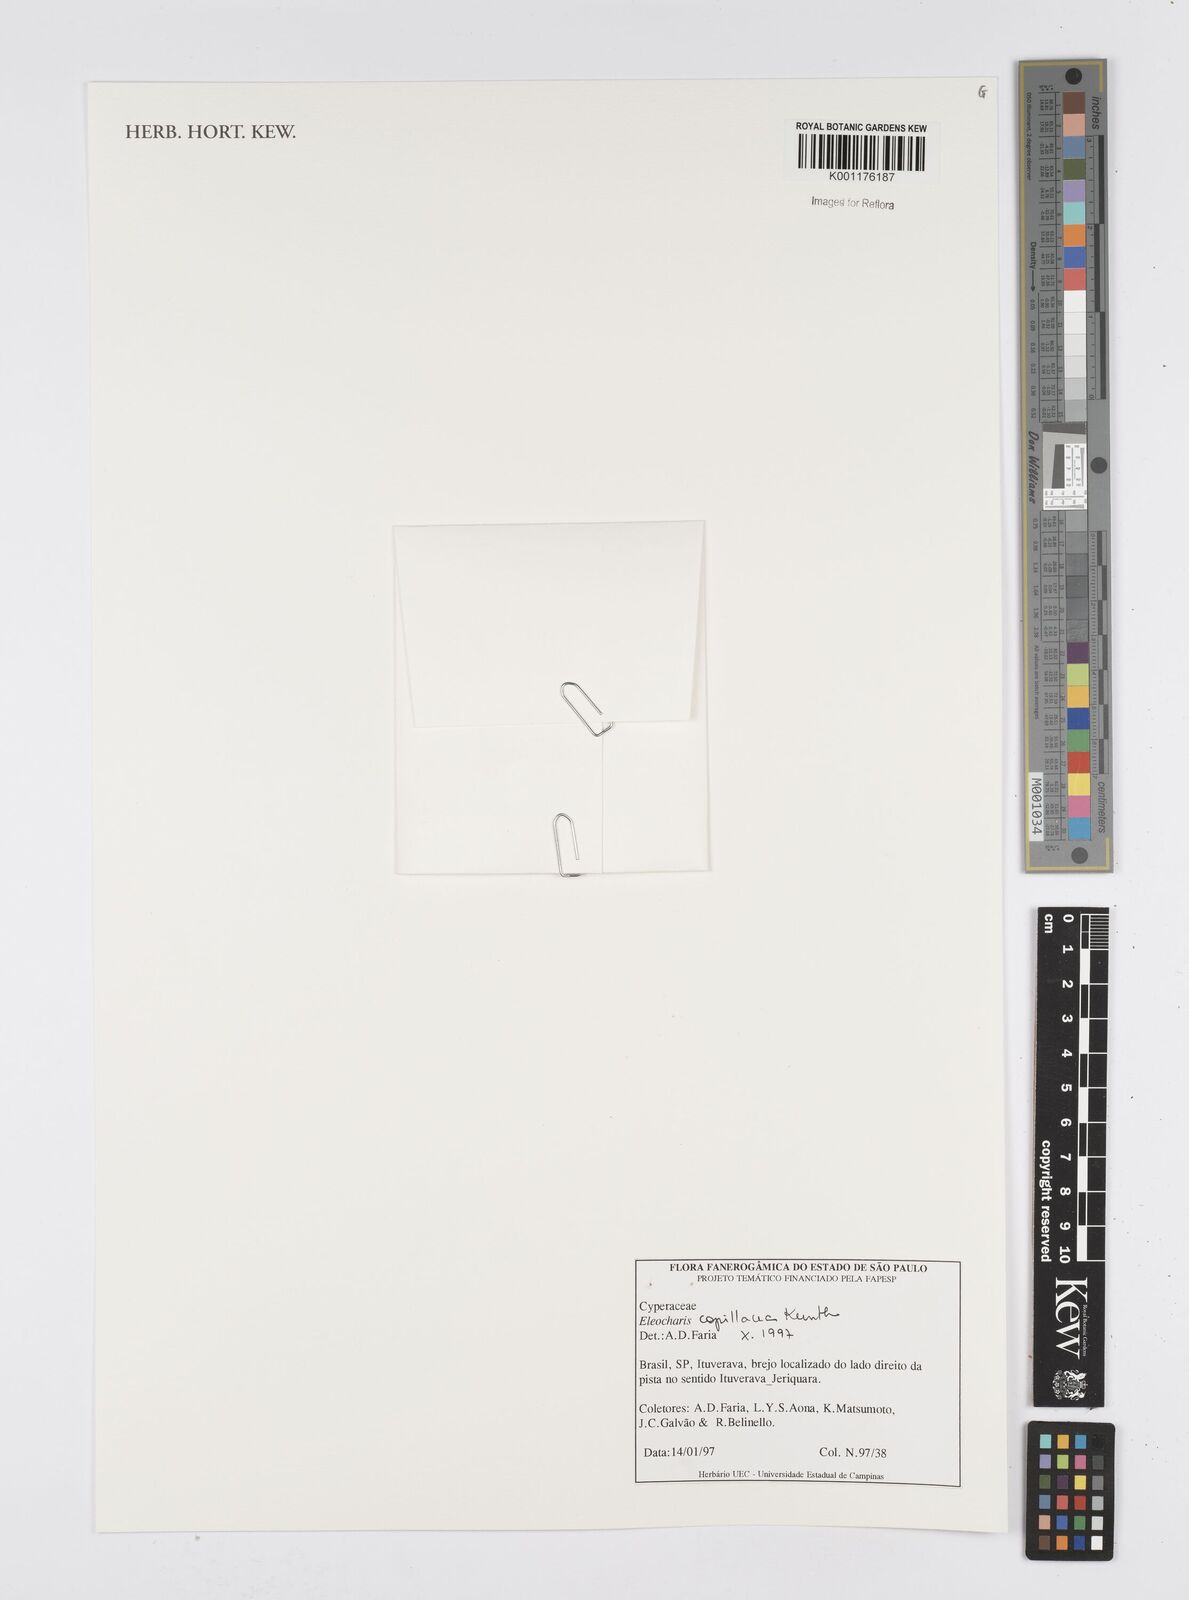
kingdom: Plantae
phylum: Tracheophyta
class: Liliopsida
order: Poales
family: Cyperaceae
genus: Eleocharis
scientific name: Eleocharis capillacea
